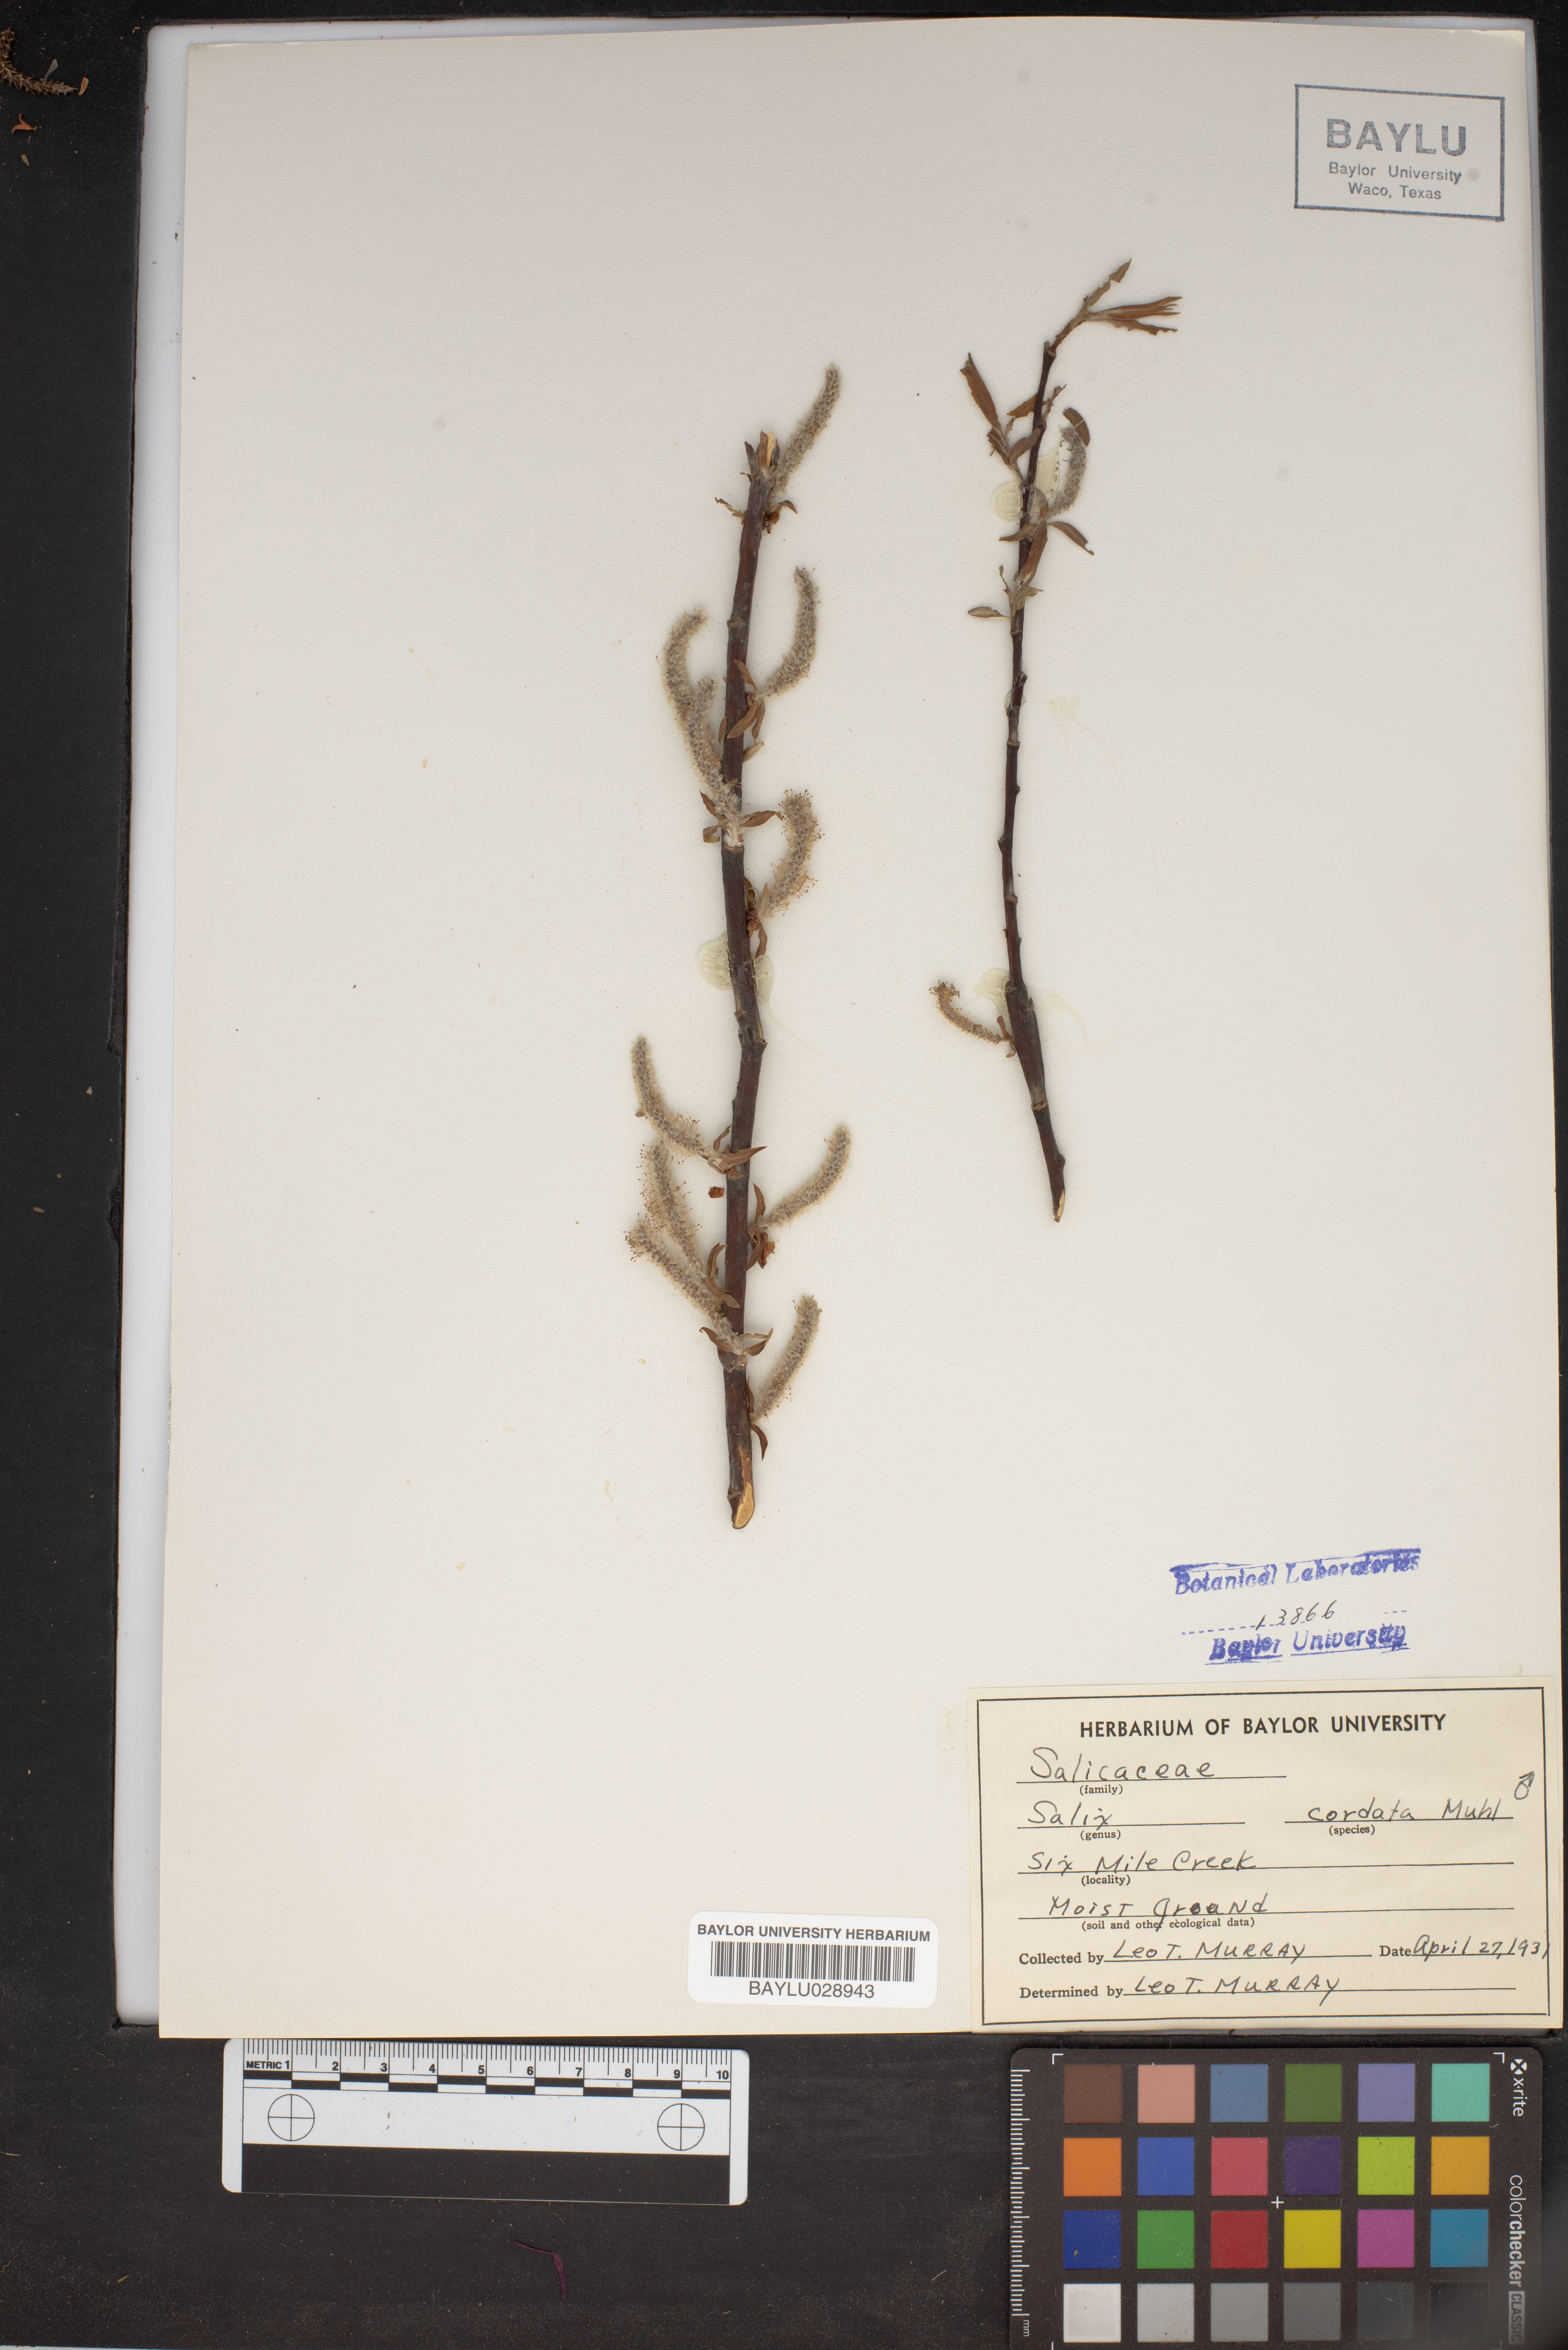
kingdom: Plantae
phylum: Tracheophyta
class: Magnoliopsida
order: Malpighiales
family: Salicaceae
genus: Salix
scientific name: Salix cordata
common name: Heart-leaf willow
